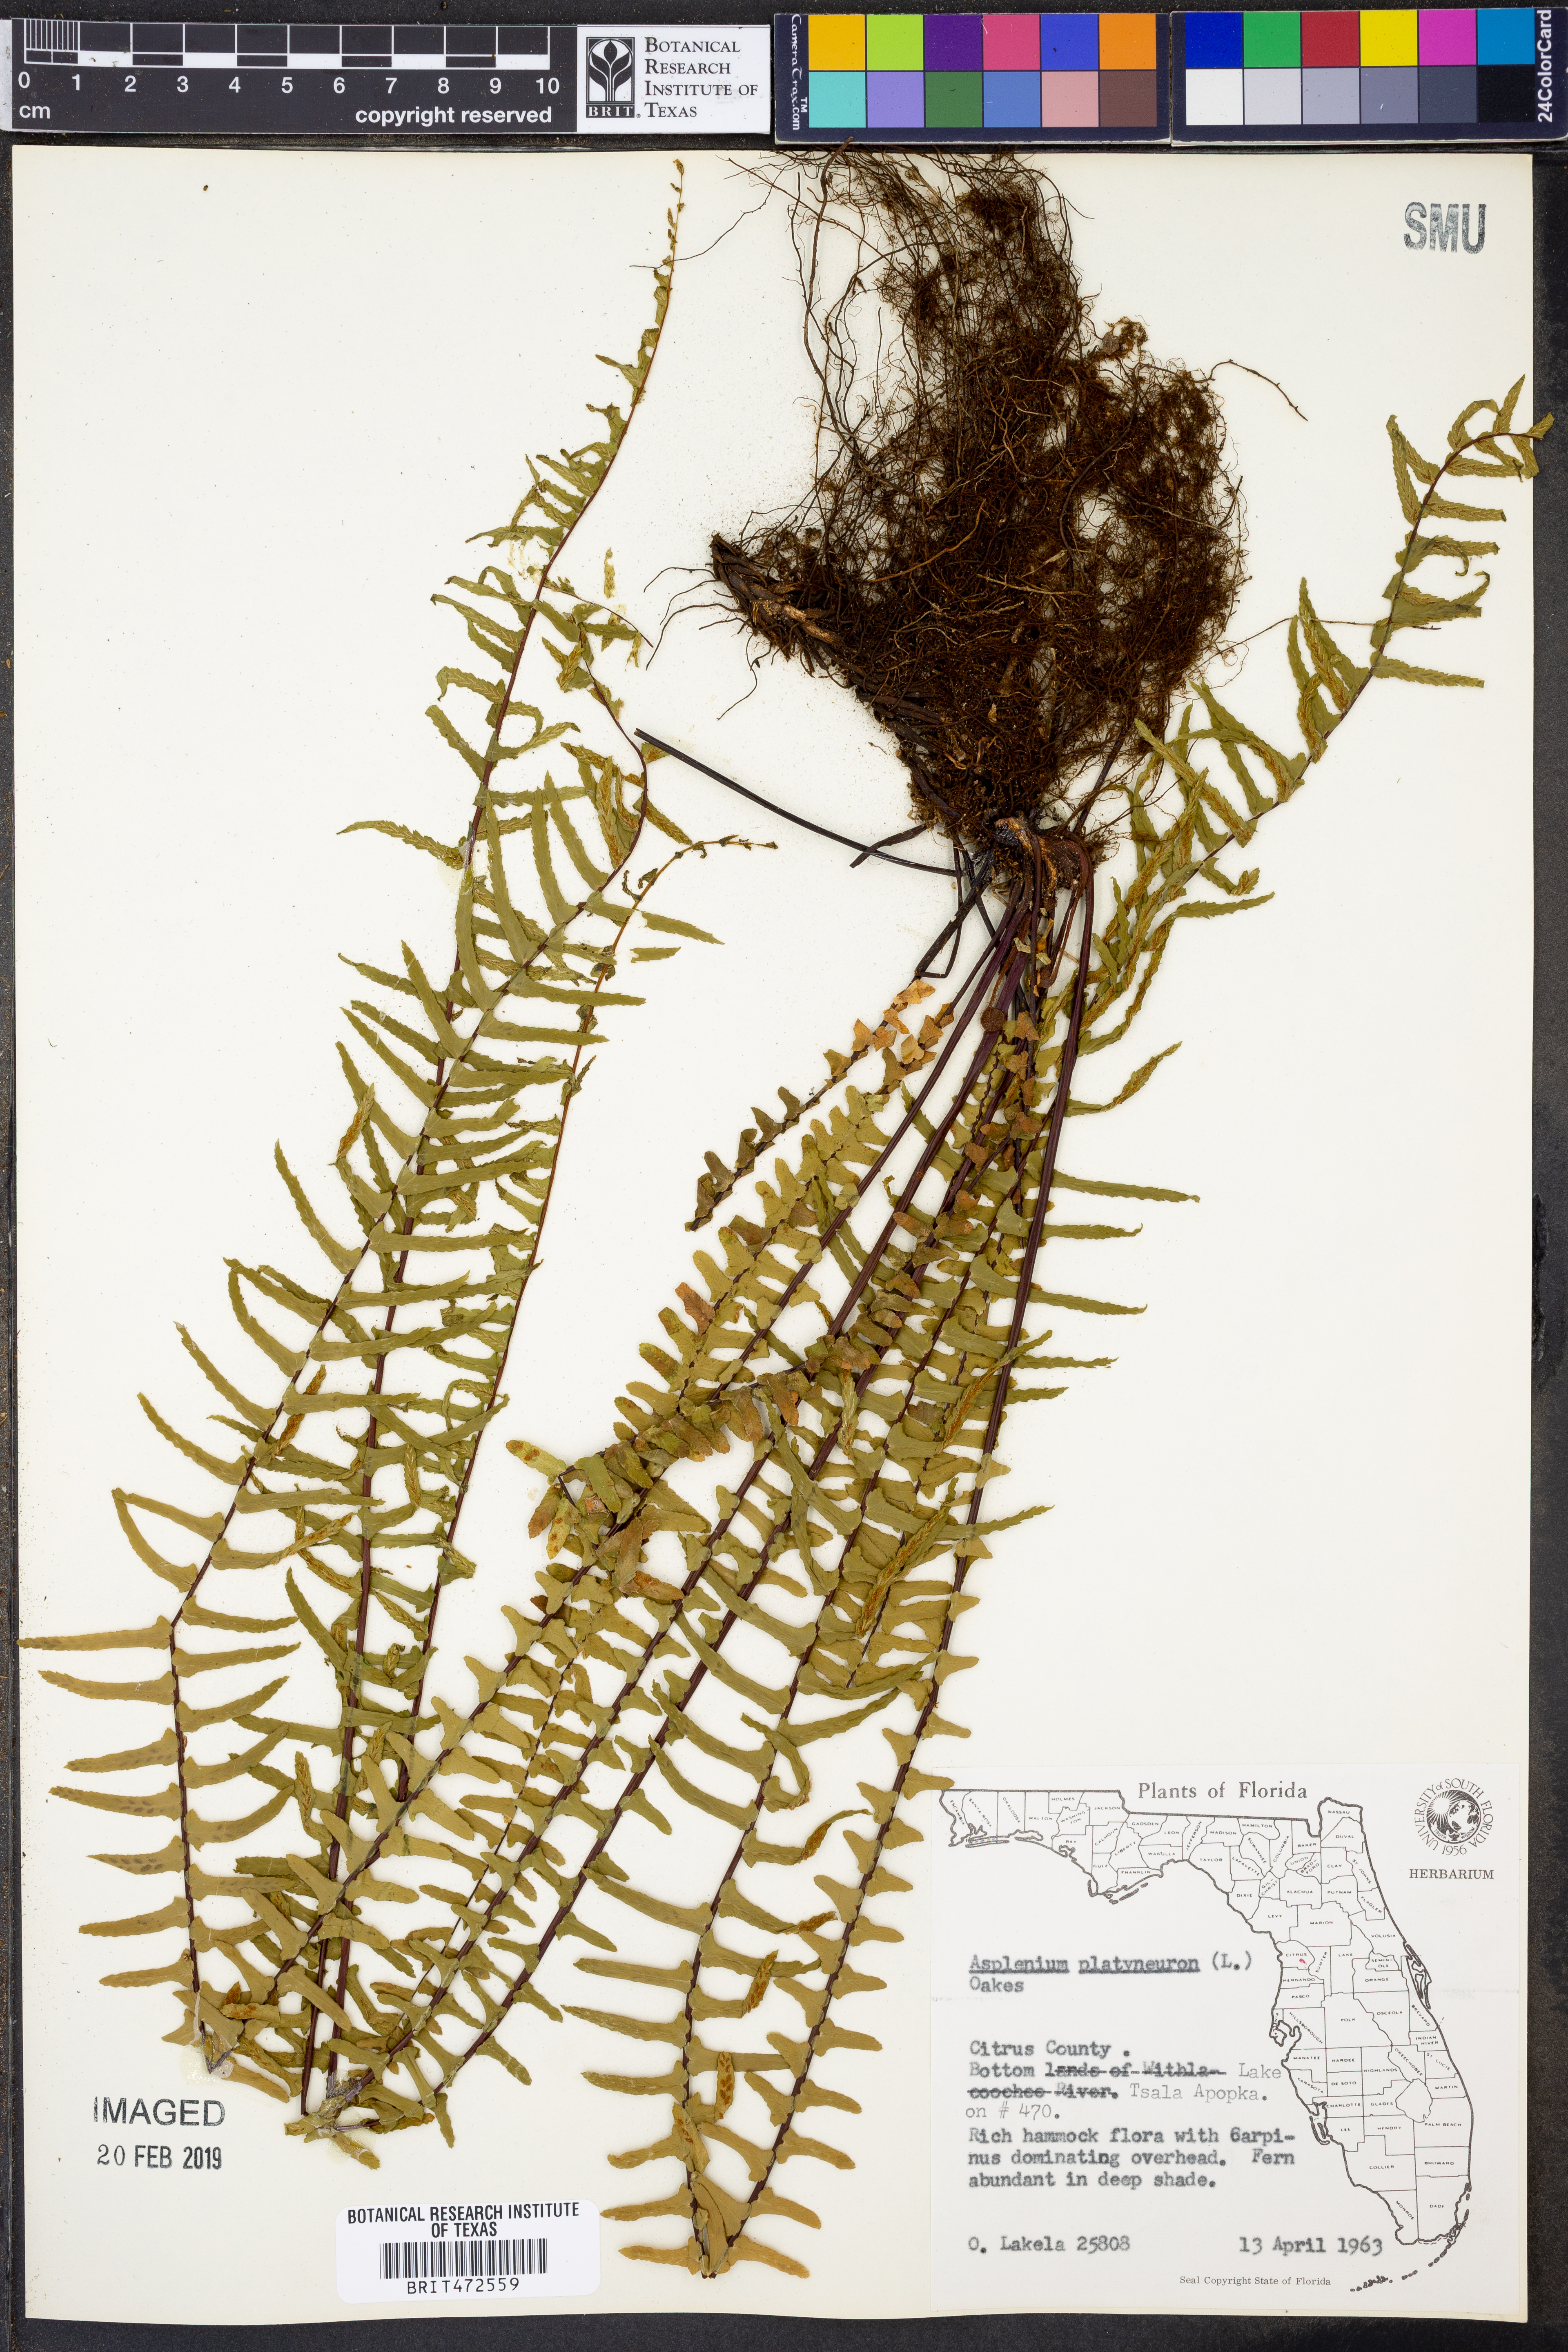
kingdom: Plantae
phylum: Tracheophyta
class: Polypodiopsida
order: Polypodiales
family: Aspleniaceae
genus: Asplenium
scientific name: Asplenium platyneuron
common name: Ebony spleenwort
